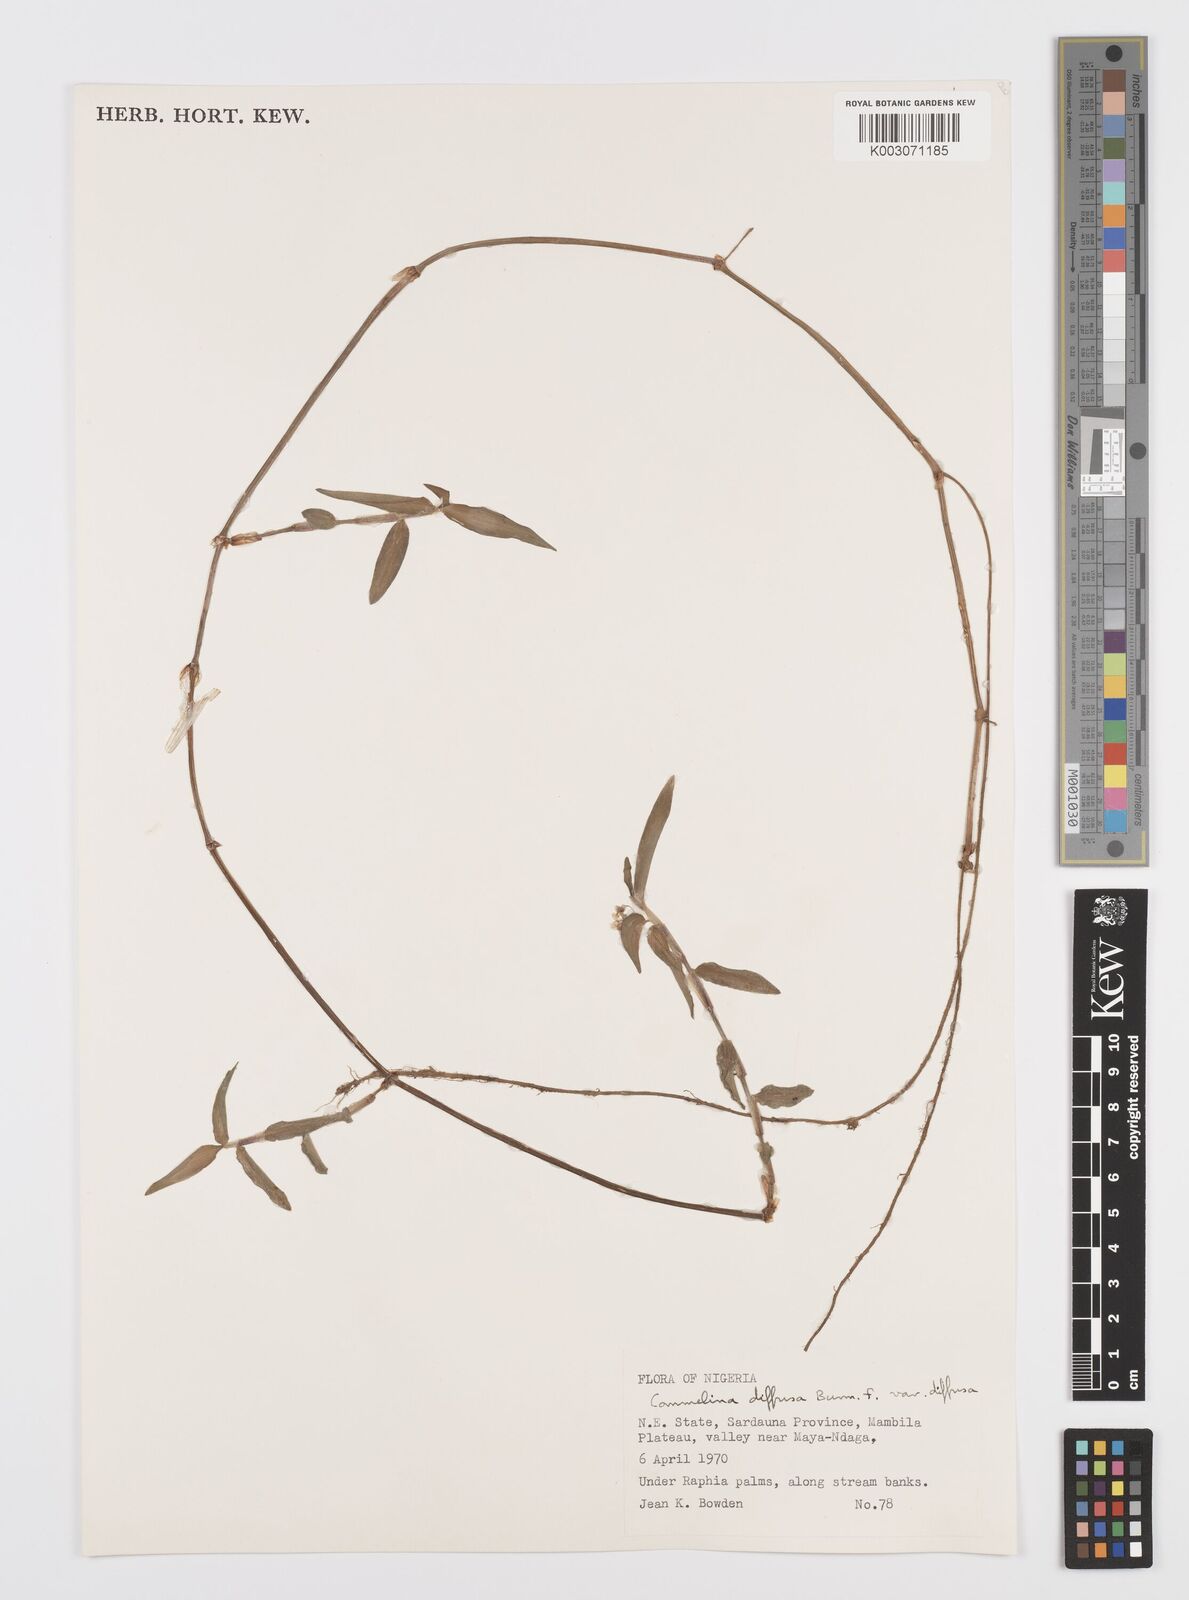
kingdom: Plantae
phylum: Tracheophyta
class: Liliopsida
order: Commelinales
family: Commelinaceae
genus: Commelina
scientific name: Commelina diffusa
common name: Climbing dayflower
